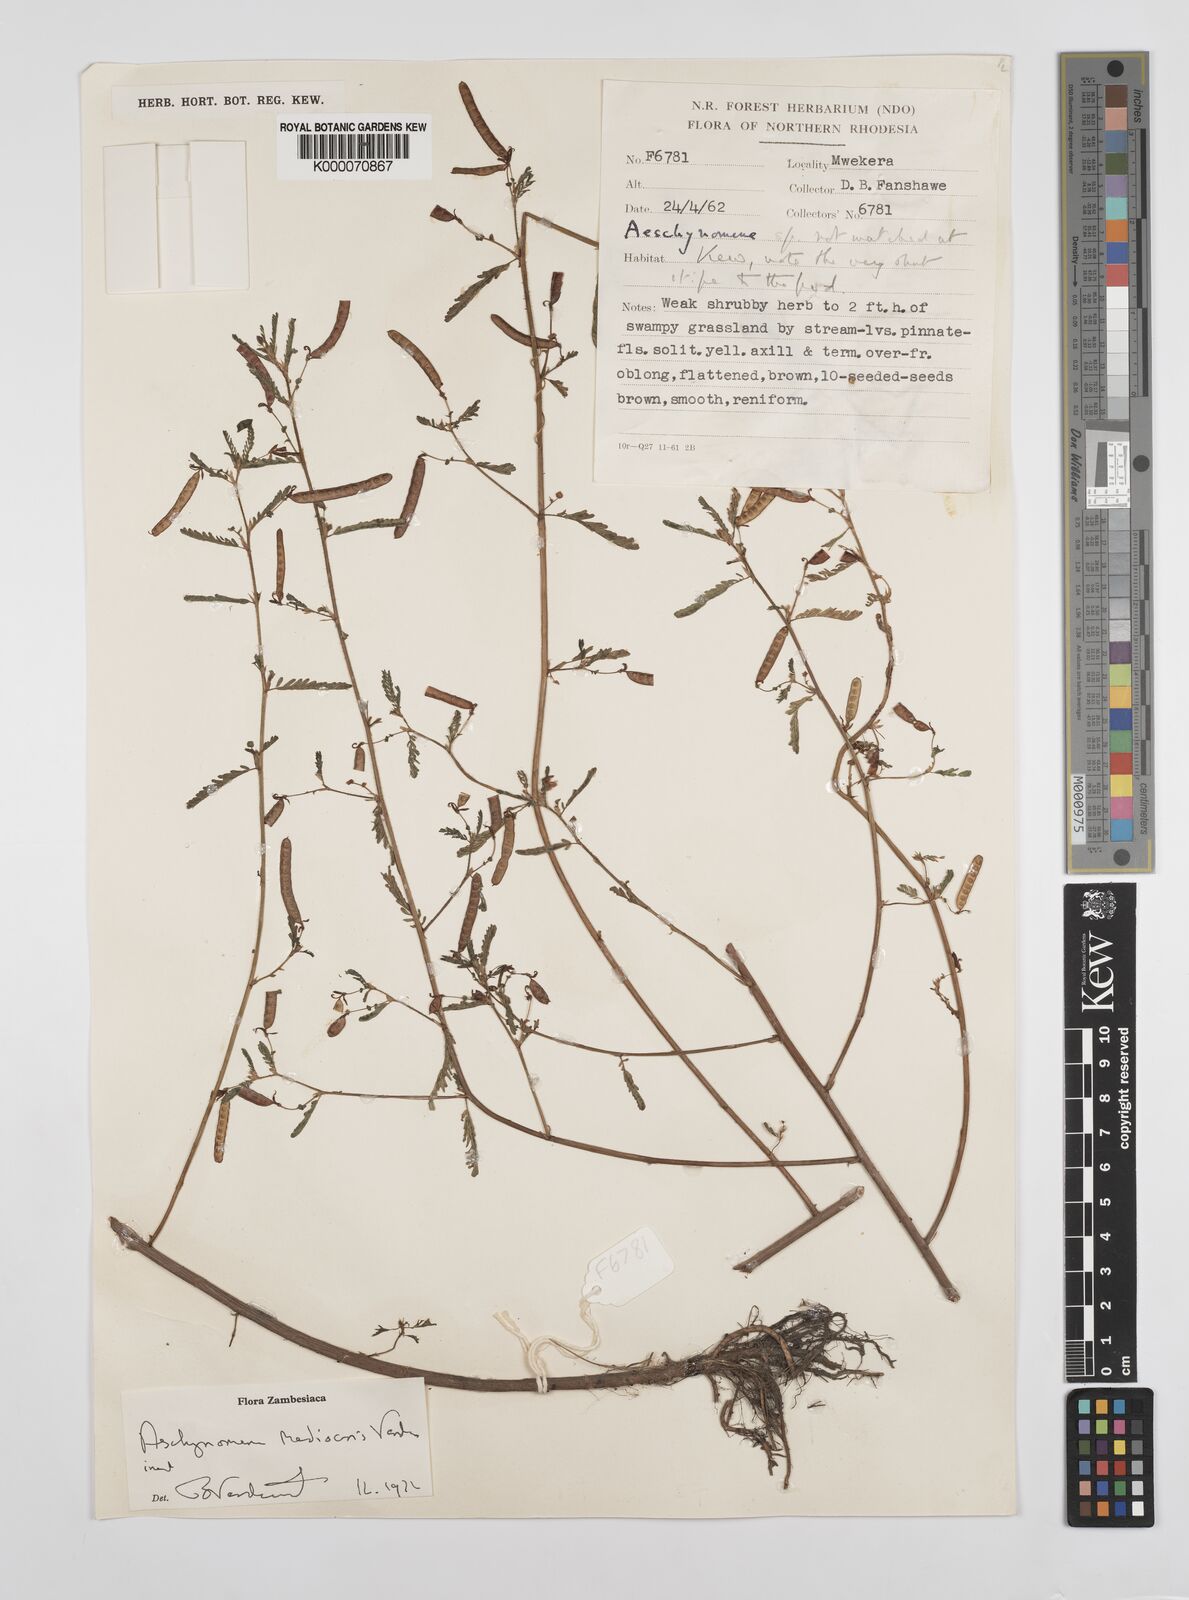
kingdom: Plantae
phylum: Tracheophyta
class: Magnoliopsida
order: Fabales
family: Fabaceae
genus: Aeschynomene
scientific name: Aeschynomene mediocris
